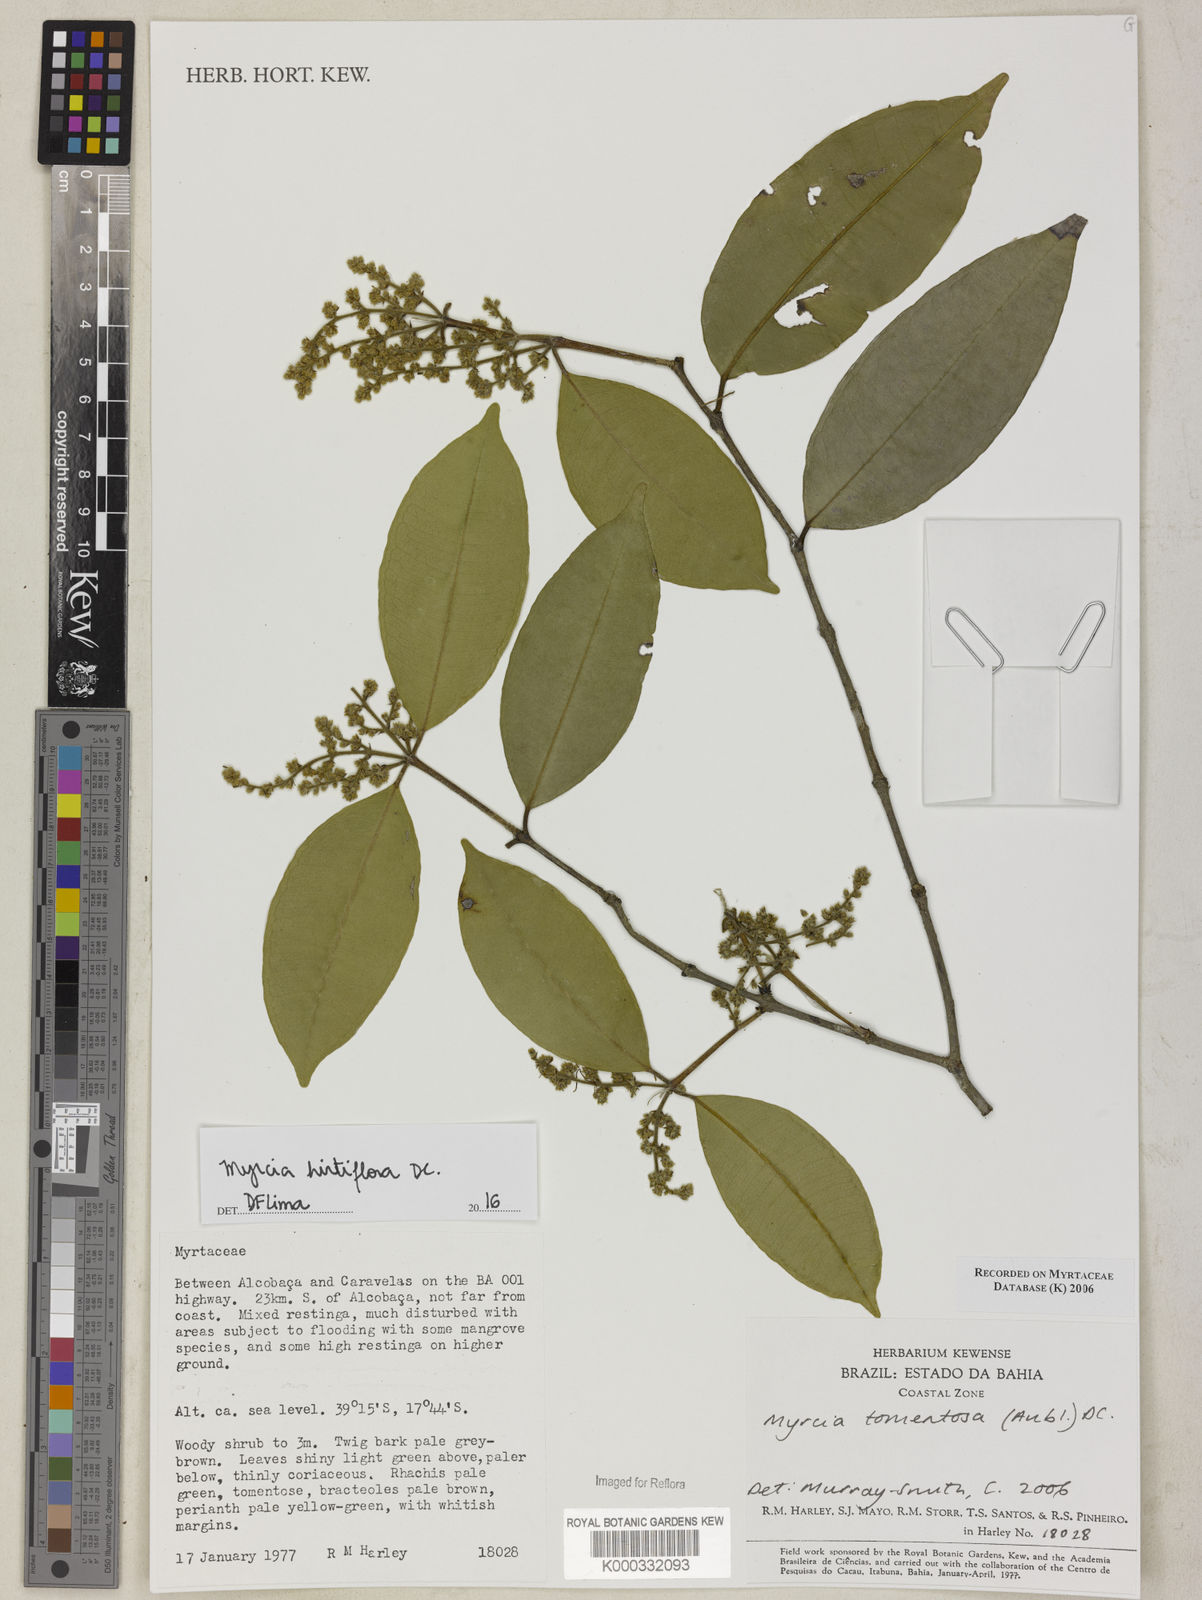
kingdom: Plantae
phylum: Tracheophyta
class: Magnoliopsida
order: Myrtales
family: Myrtaceae
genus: Myrcia
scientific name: Myrcia tomentosa
